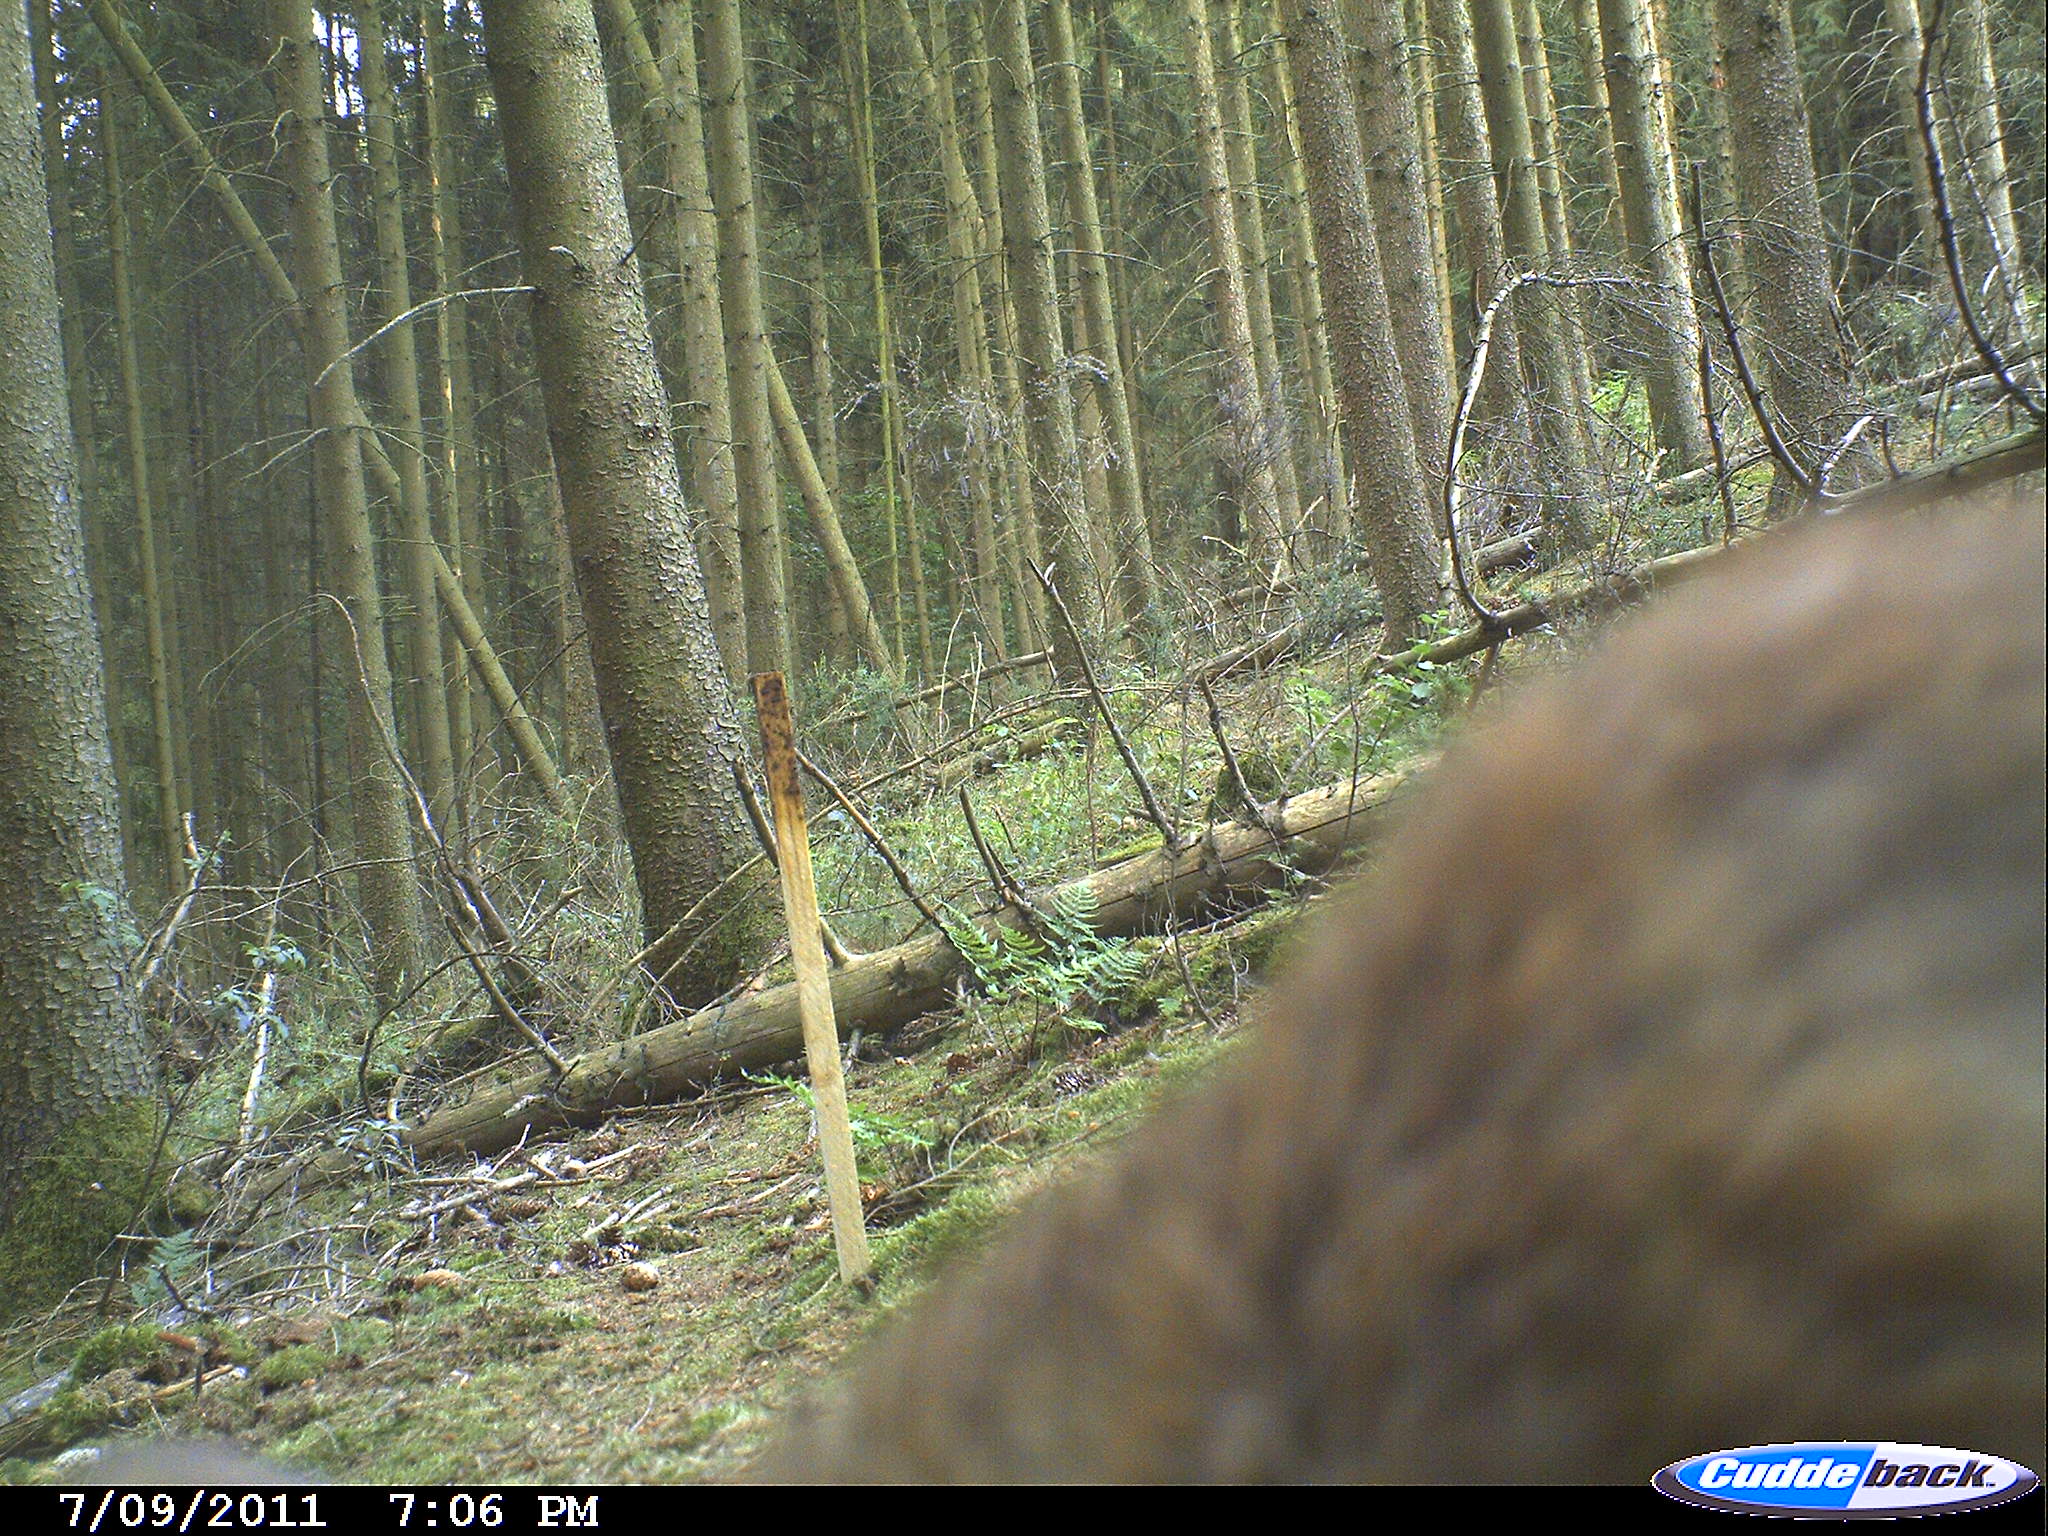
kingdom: Animalia
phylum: Chordata
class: Mammalia
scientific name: Mammalia
